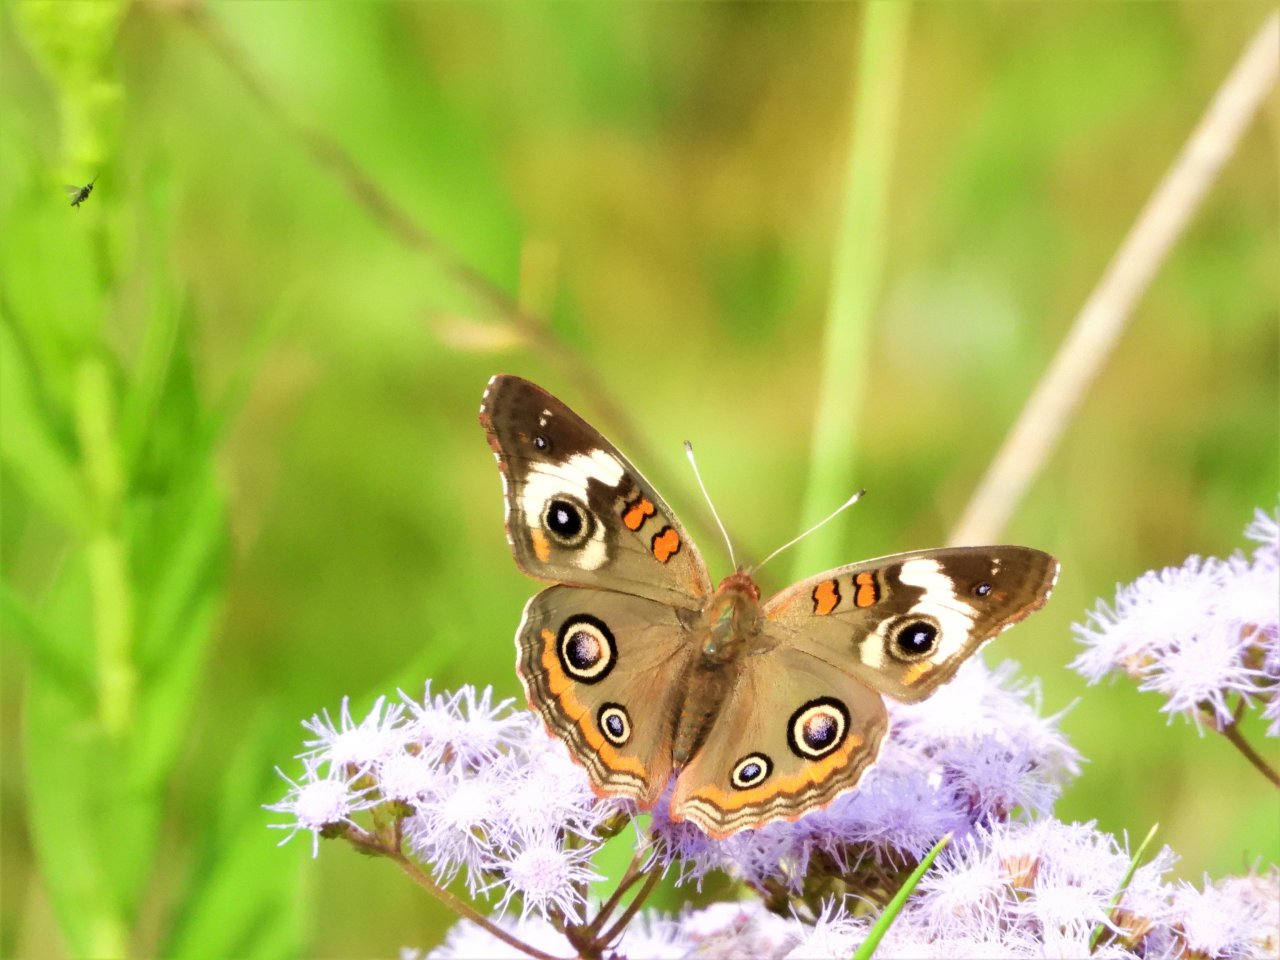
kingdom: Animalia
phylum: Arthropoda
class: Insecta
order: Lepidoptera
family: Nymphalidae
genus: Junonia
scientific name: Junonia coenia
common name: Common Buckeye
